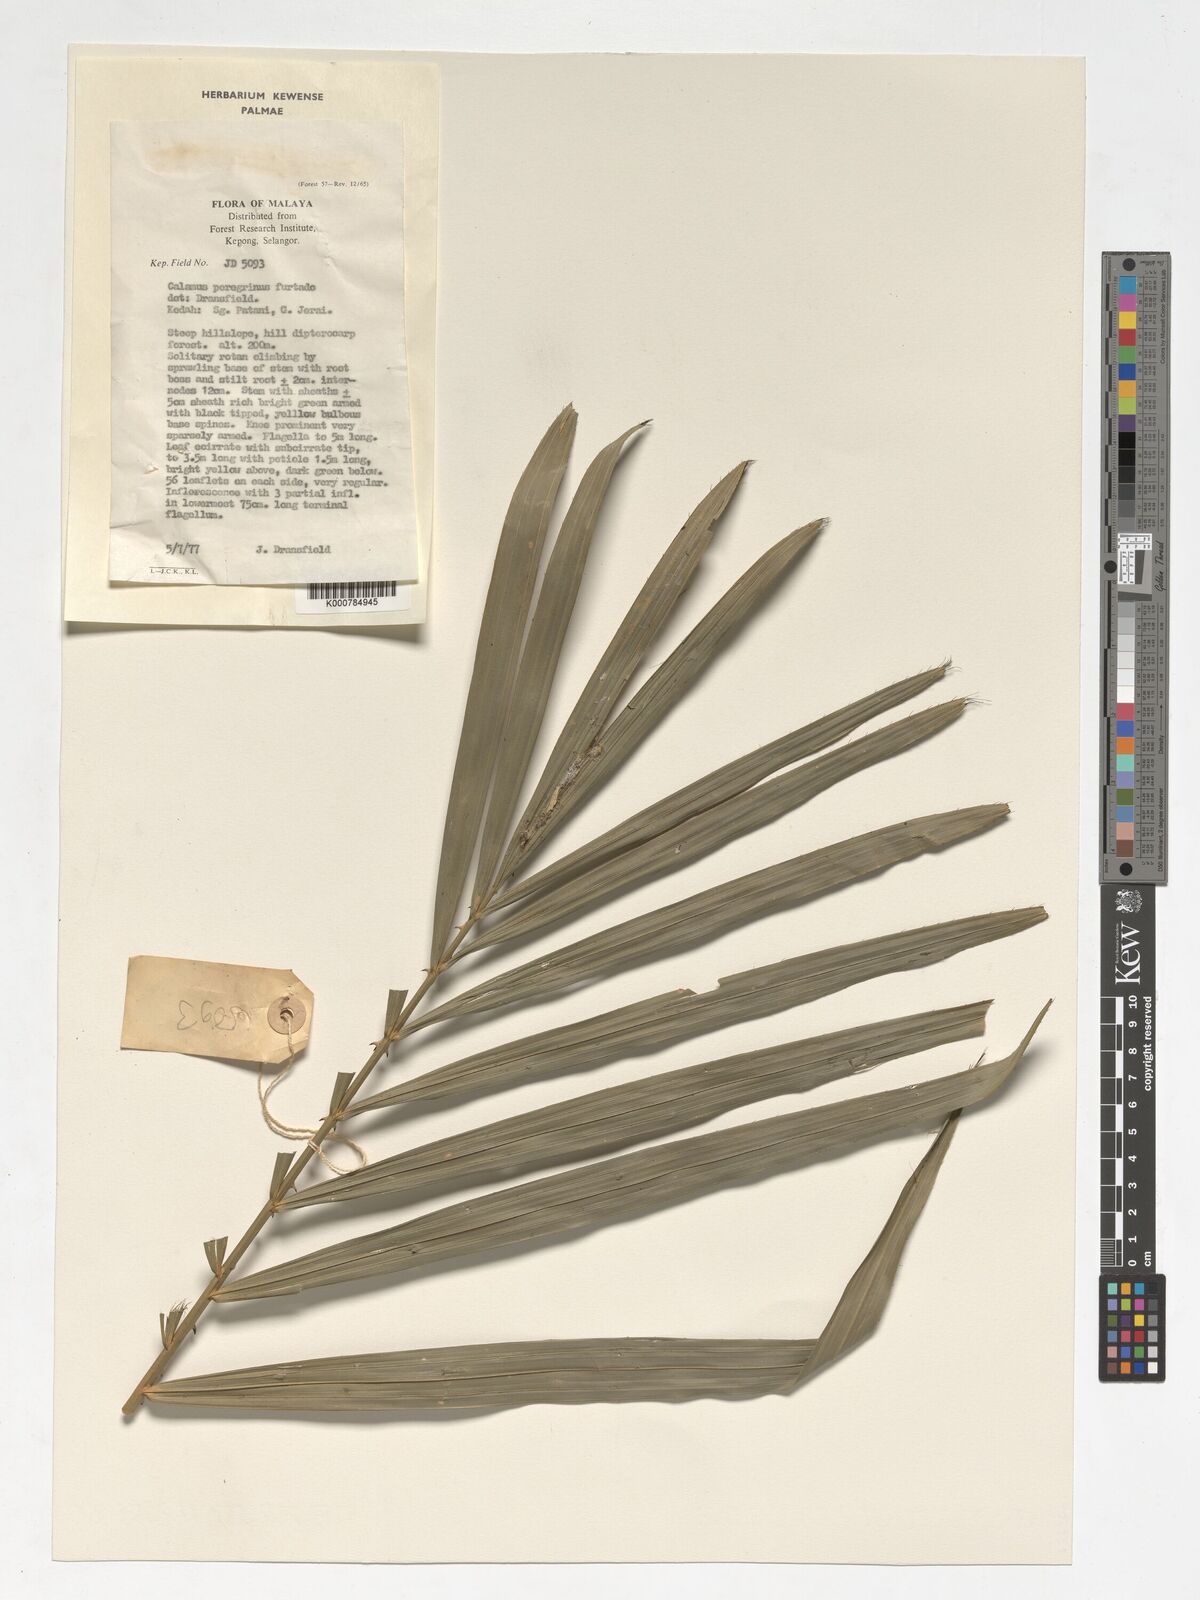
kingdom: Plantae
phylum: Tracheophyta
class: Liliopsida
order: Arecales
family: Arecaceae
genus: Calamus
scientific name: Calamus peregrinus
